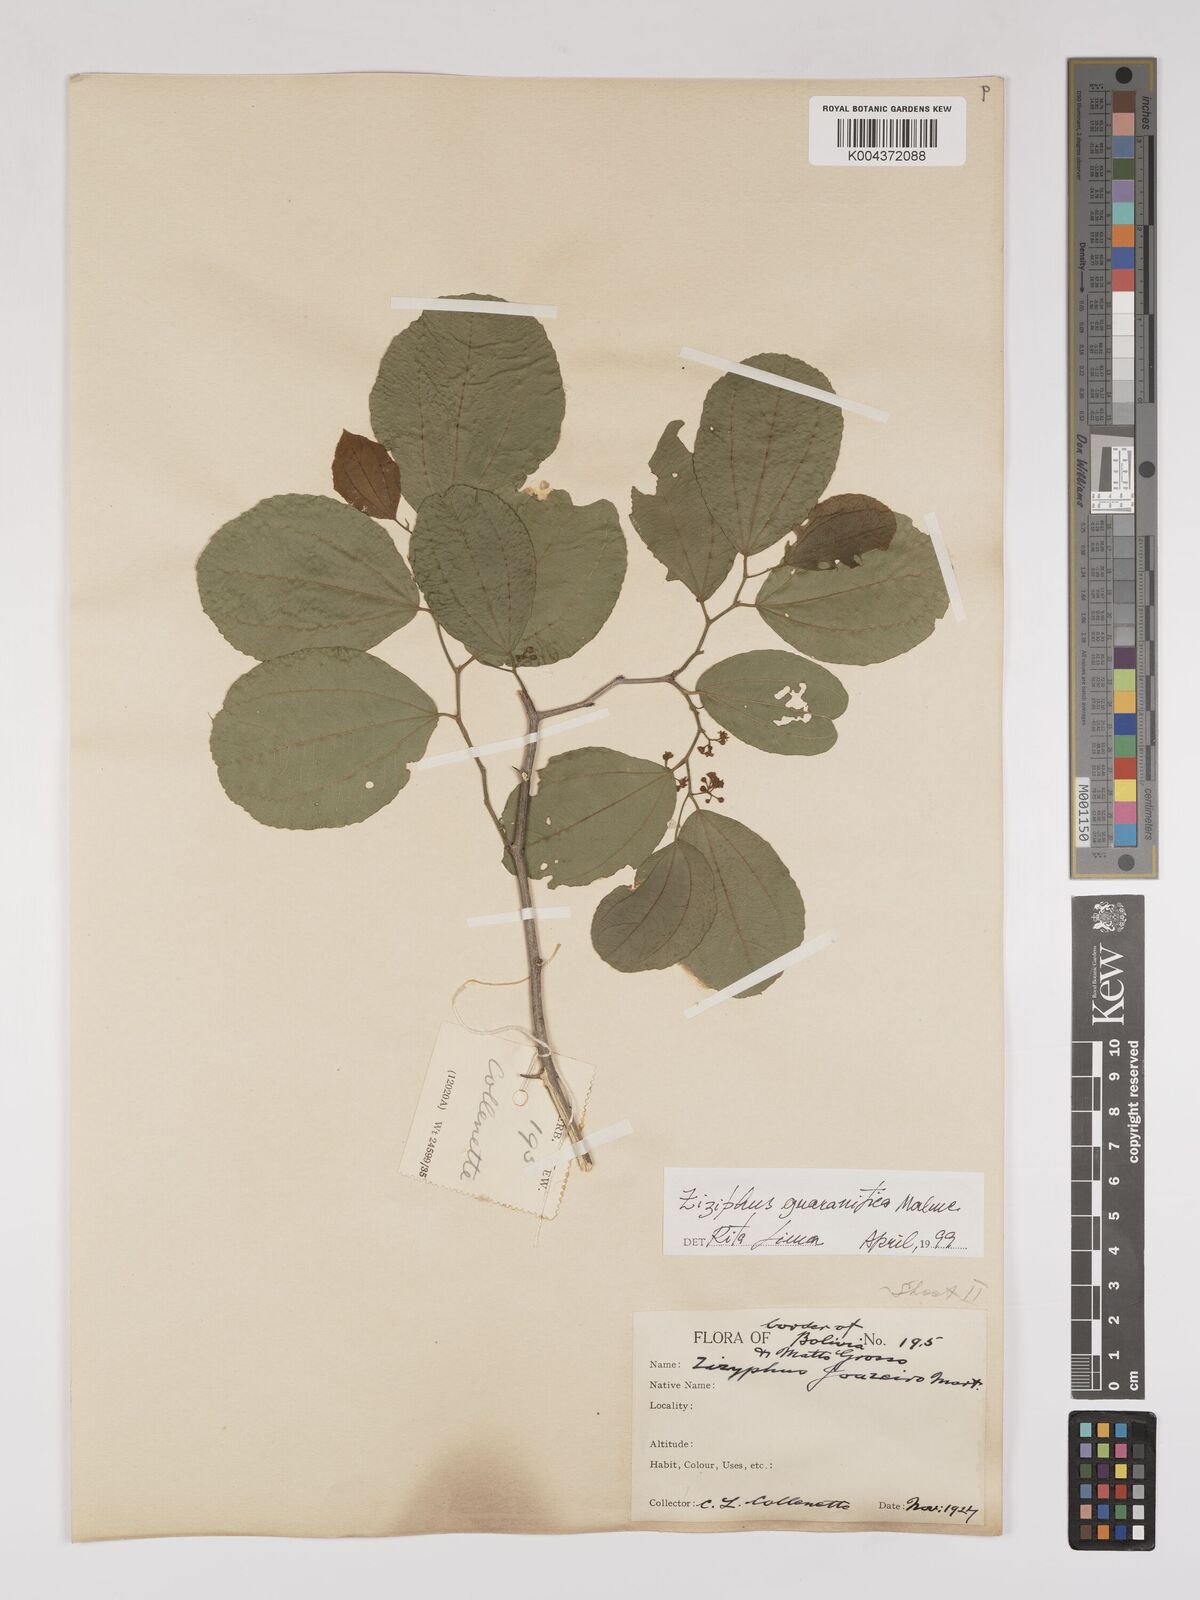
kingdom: Plantae
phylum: Tracheophyta
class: Magnoliopsida
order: Rosales
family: Rhamnaceae
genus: Ziziphus
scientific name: Ziziphus guaranitica
